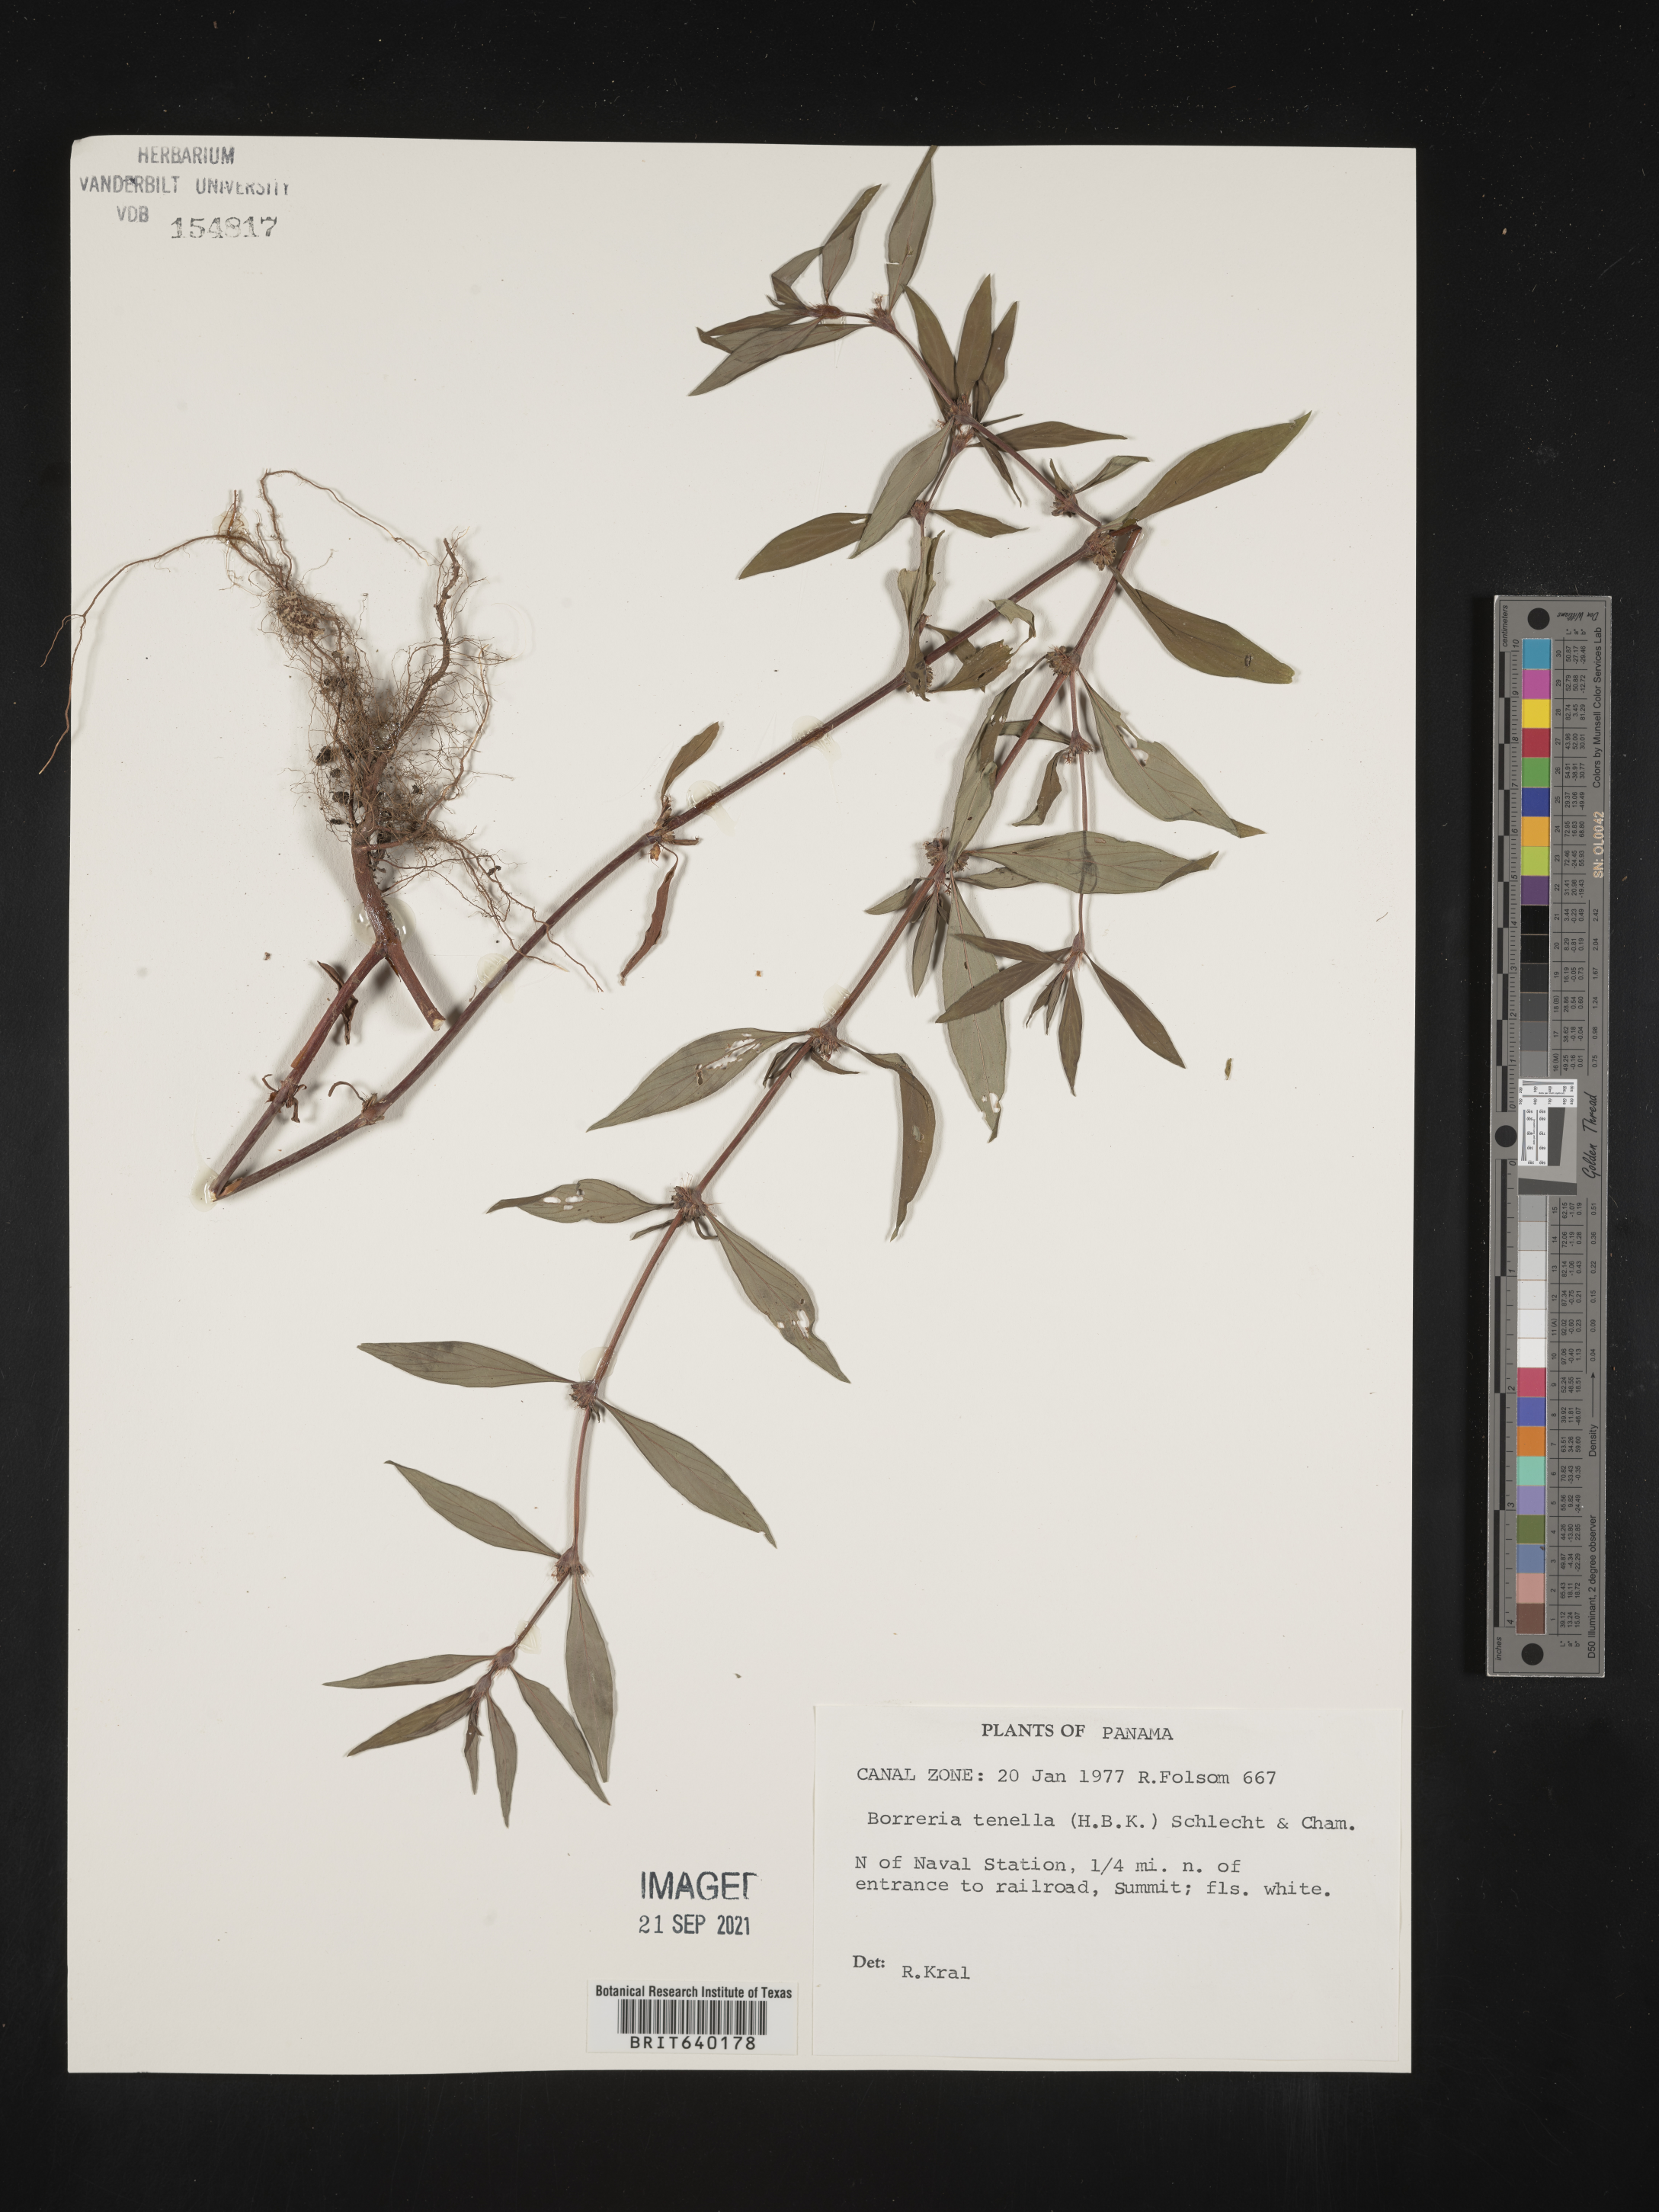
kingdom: Plantae
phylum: Tracheophyta
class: Magnoliopsida
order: Gentianales
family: Rubiaceae
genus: Spermacoce
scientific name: Spermacoce
